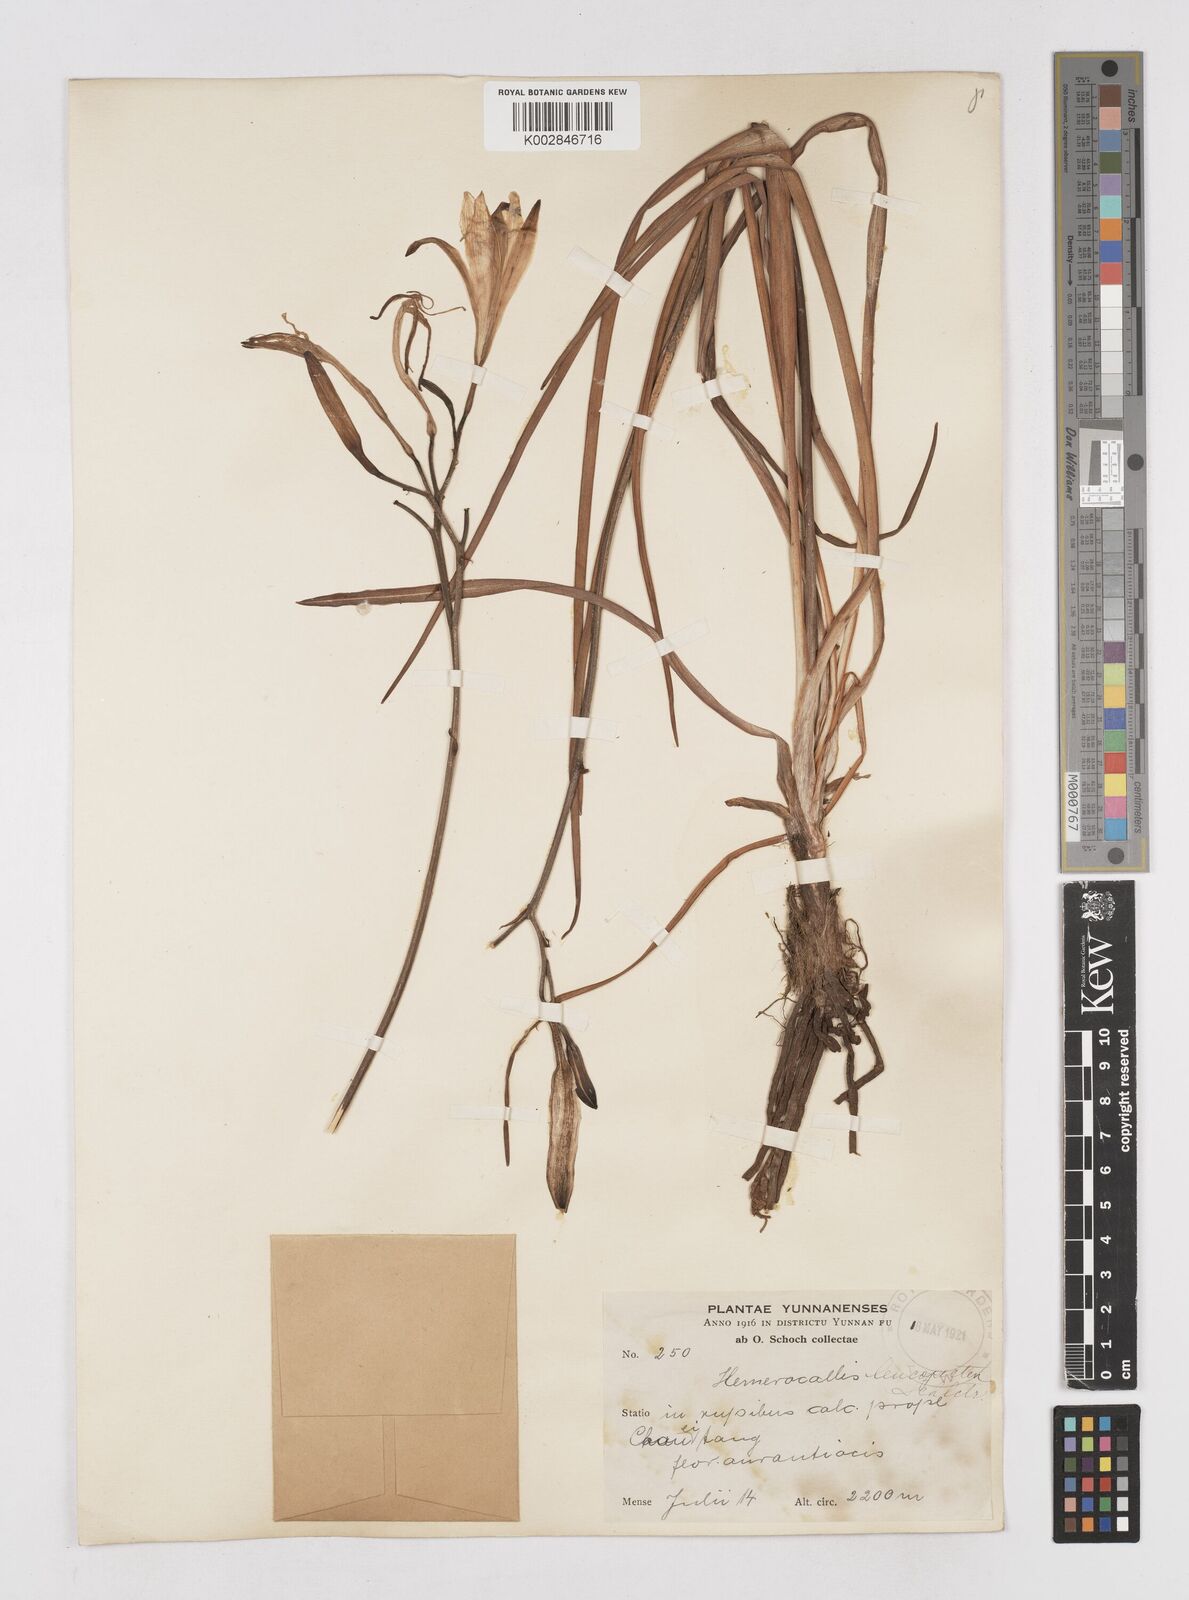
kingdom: Plantae
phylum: Tracheophyta
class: Liliopsida
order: Asparagales
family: Asphodelaceae
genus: Hemerocallis
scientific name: Hemerocallis
